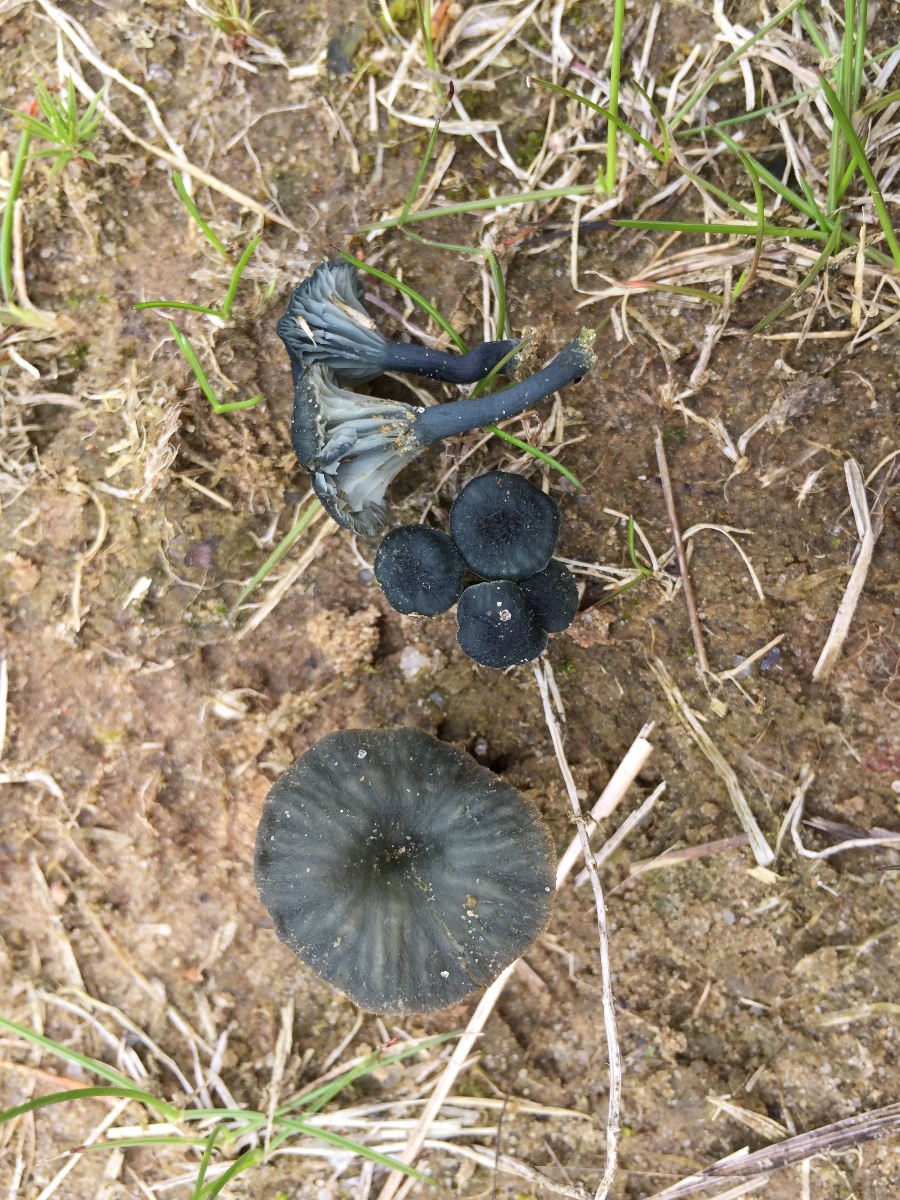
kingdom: Fungi
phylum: Basidiomycota
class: Agaricomycetes
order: Agaricales
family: Hygrophoraceae
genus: Arrhenia
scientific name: Arrhenia chlorocyanea
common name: blågrøn fontænehat
